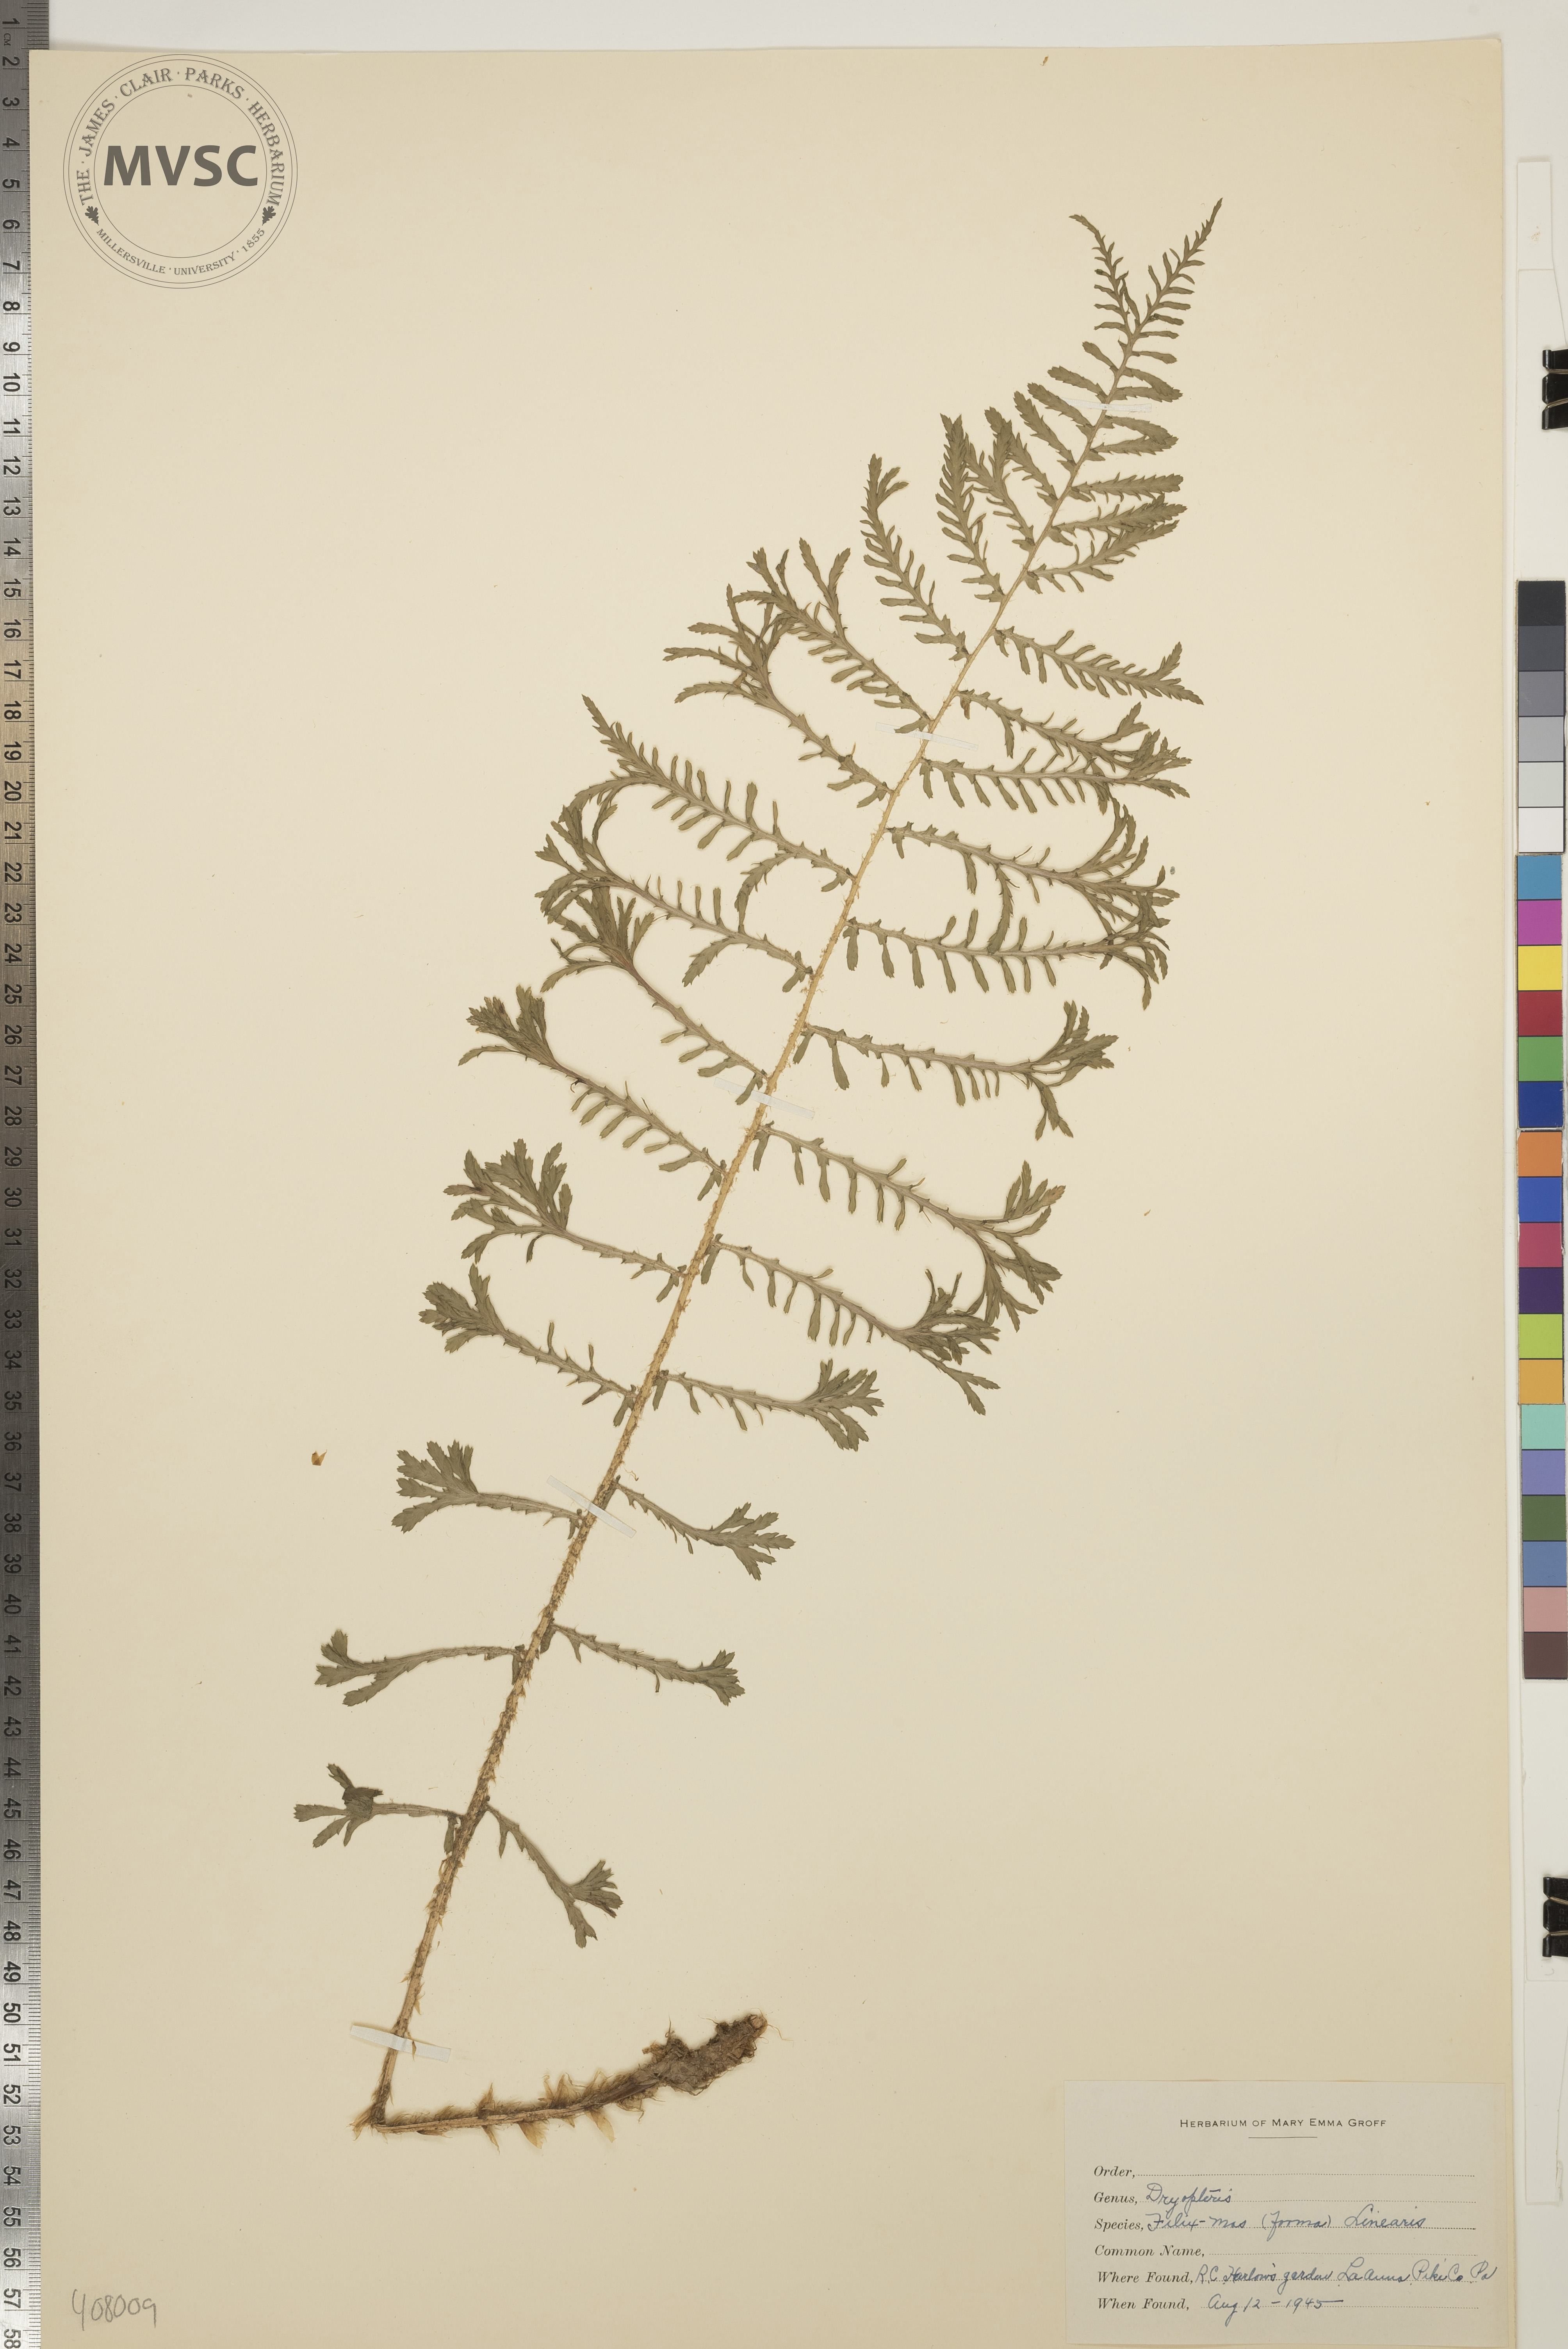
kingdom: Plantae
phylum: Tracheophyta
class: Polypodiopsida
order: Polypodiales
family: Dryopteridaceae
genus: Dryopteris
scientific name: Dryopteris filix-mas
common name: Male fern
